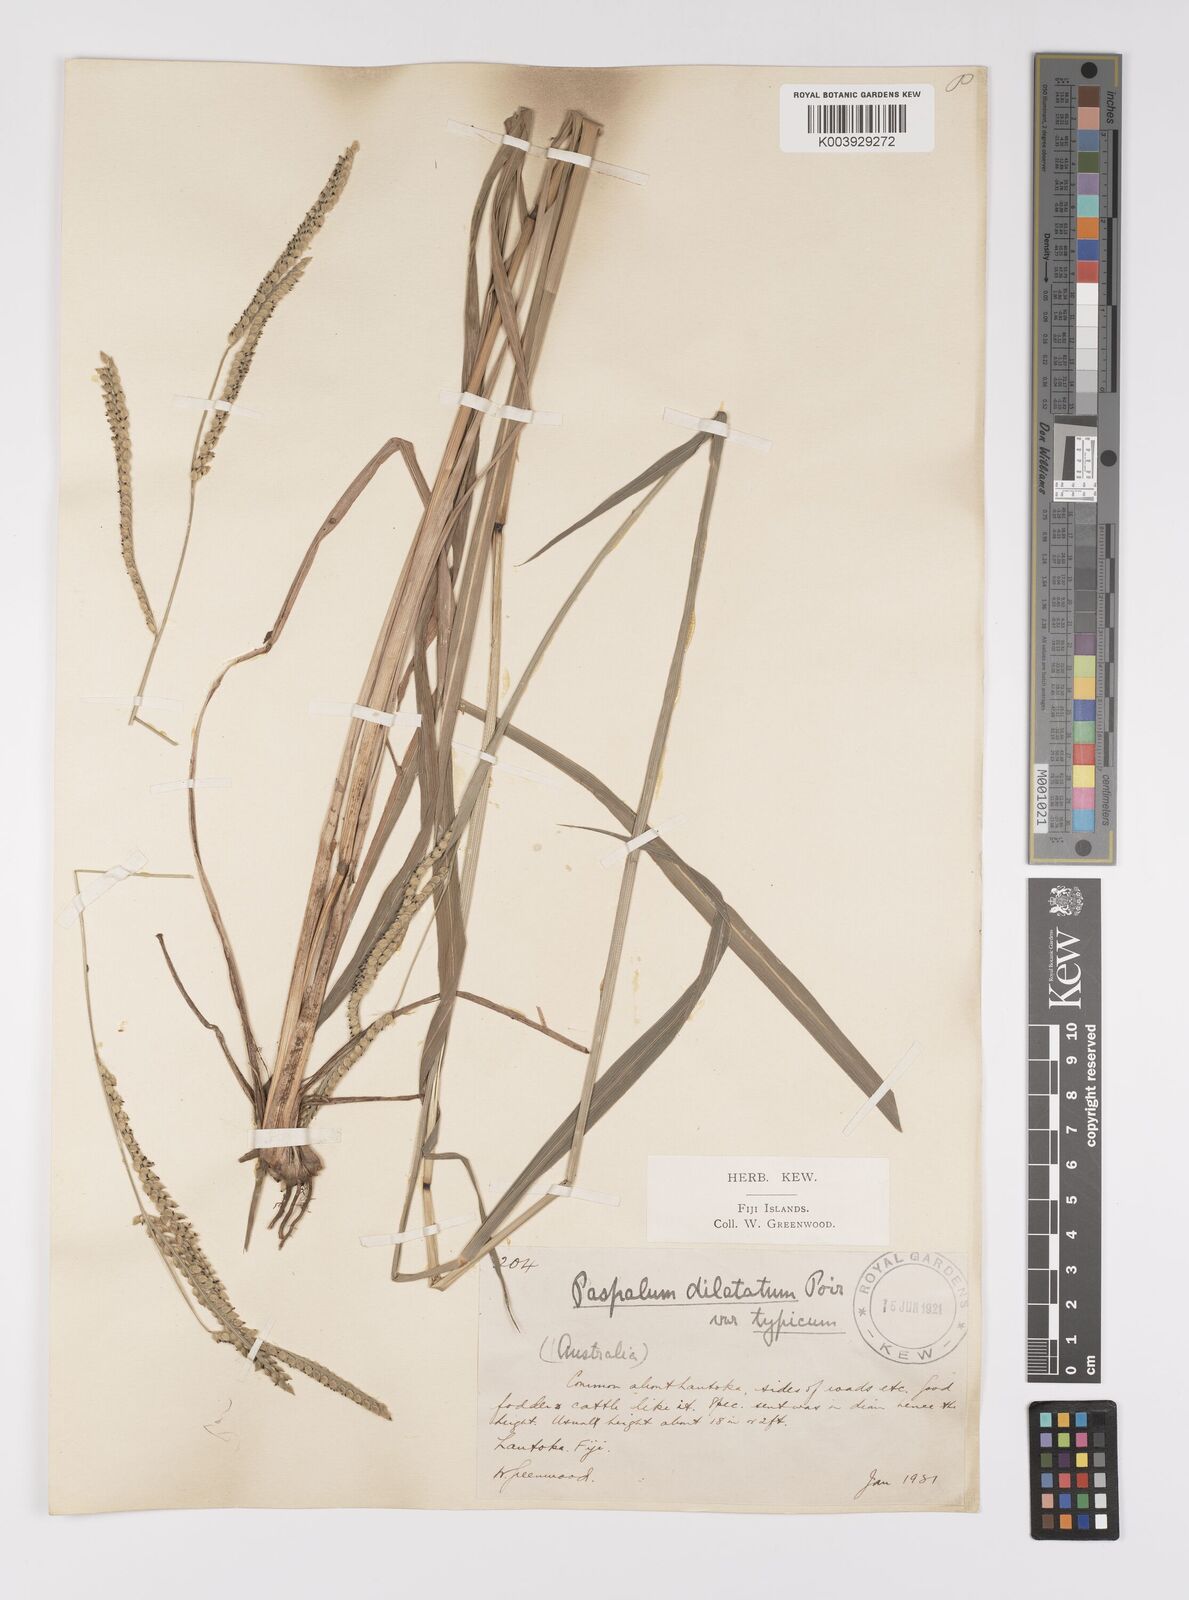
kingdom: Plantae
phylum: Tracheophyta
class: Liliopsida
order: Poales
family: Poaceae
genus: Paspalum
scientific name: Paspalum dilatatum
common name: Dallisgrass
